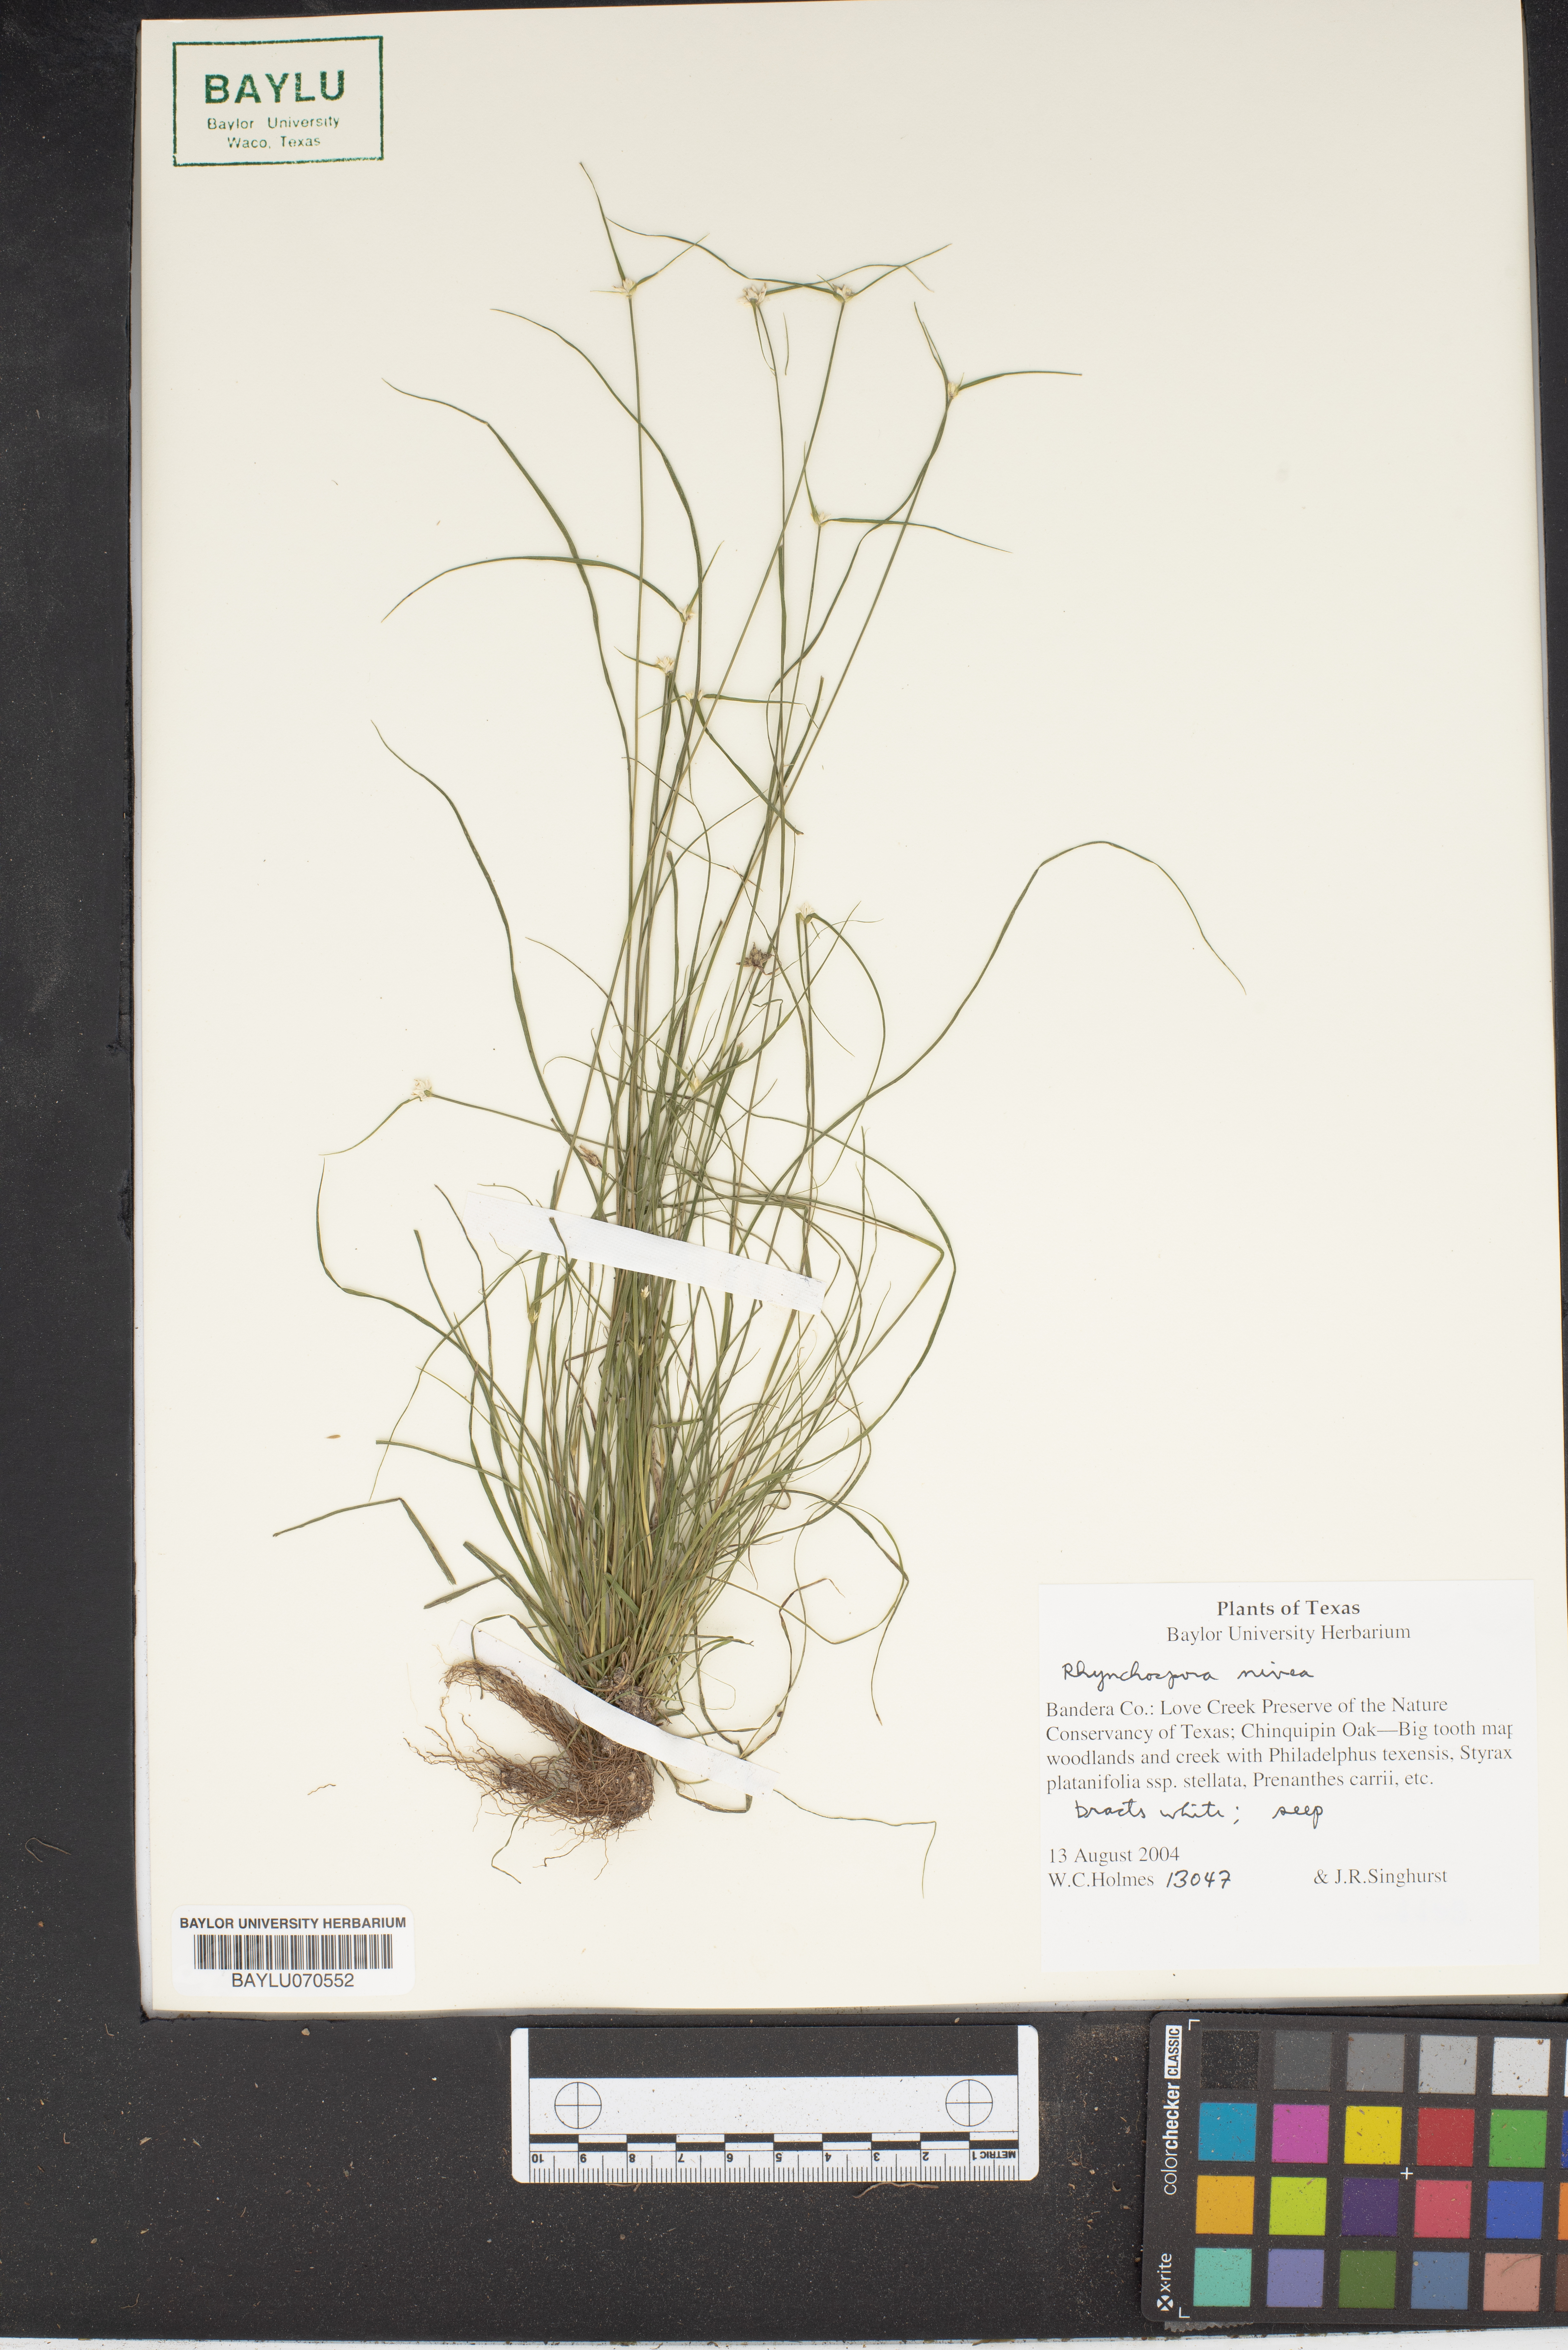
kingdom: Plantae
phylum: Tracheophyta
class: Liliopsida
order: Asparagales
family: Orchidaceae
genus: Pleurothallis
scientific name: Pleurothallis
